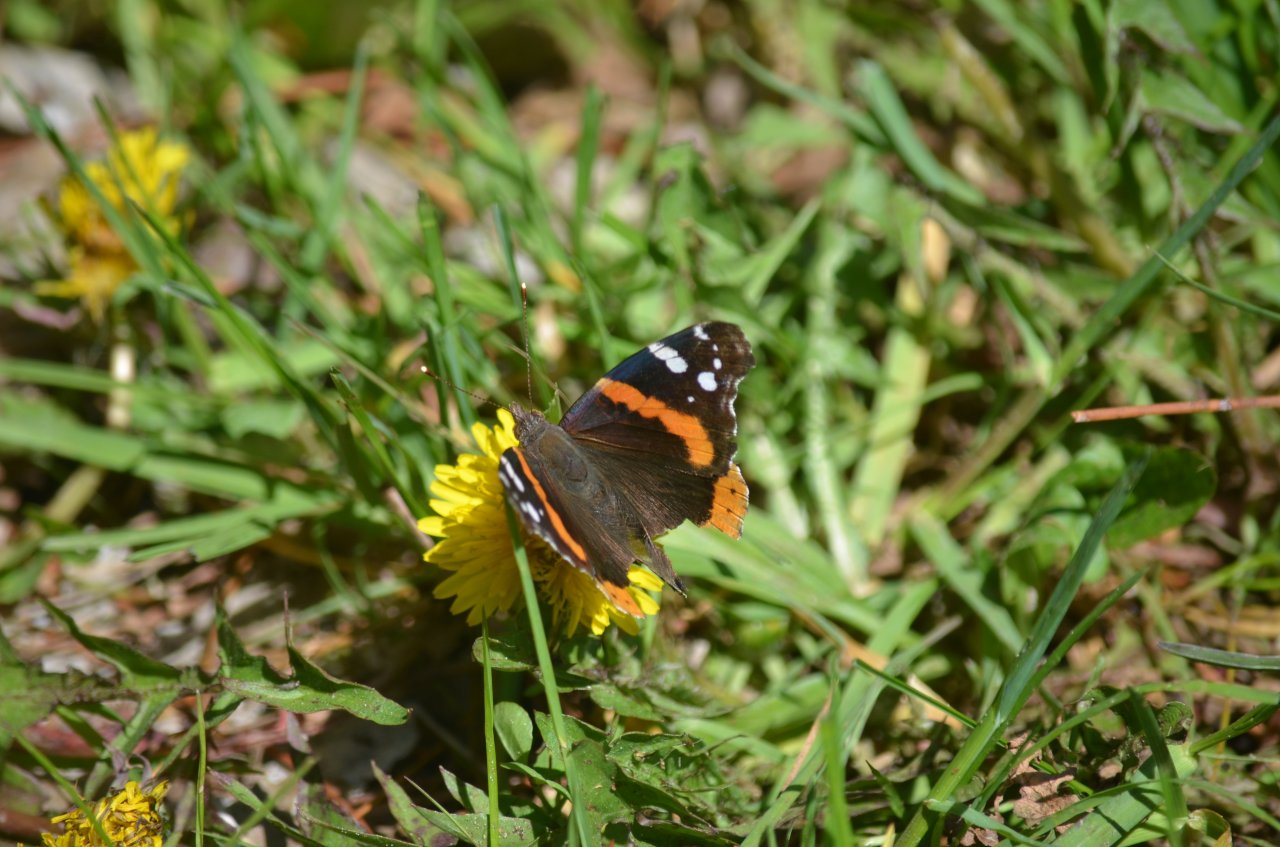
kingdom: Animalia
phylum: Arthropoda
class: Insecta
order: Lepidoptera
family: Nymphalidae
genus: Vanessa
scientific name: Vanessa atalanta
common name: Red Admiral
